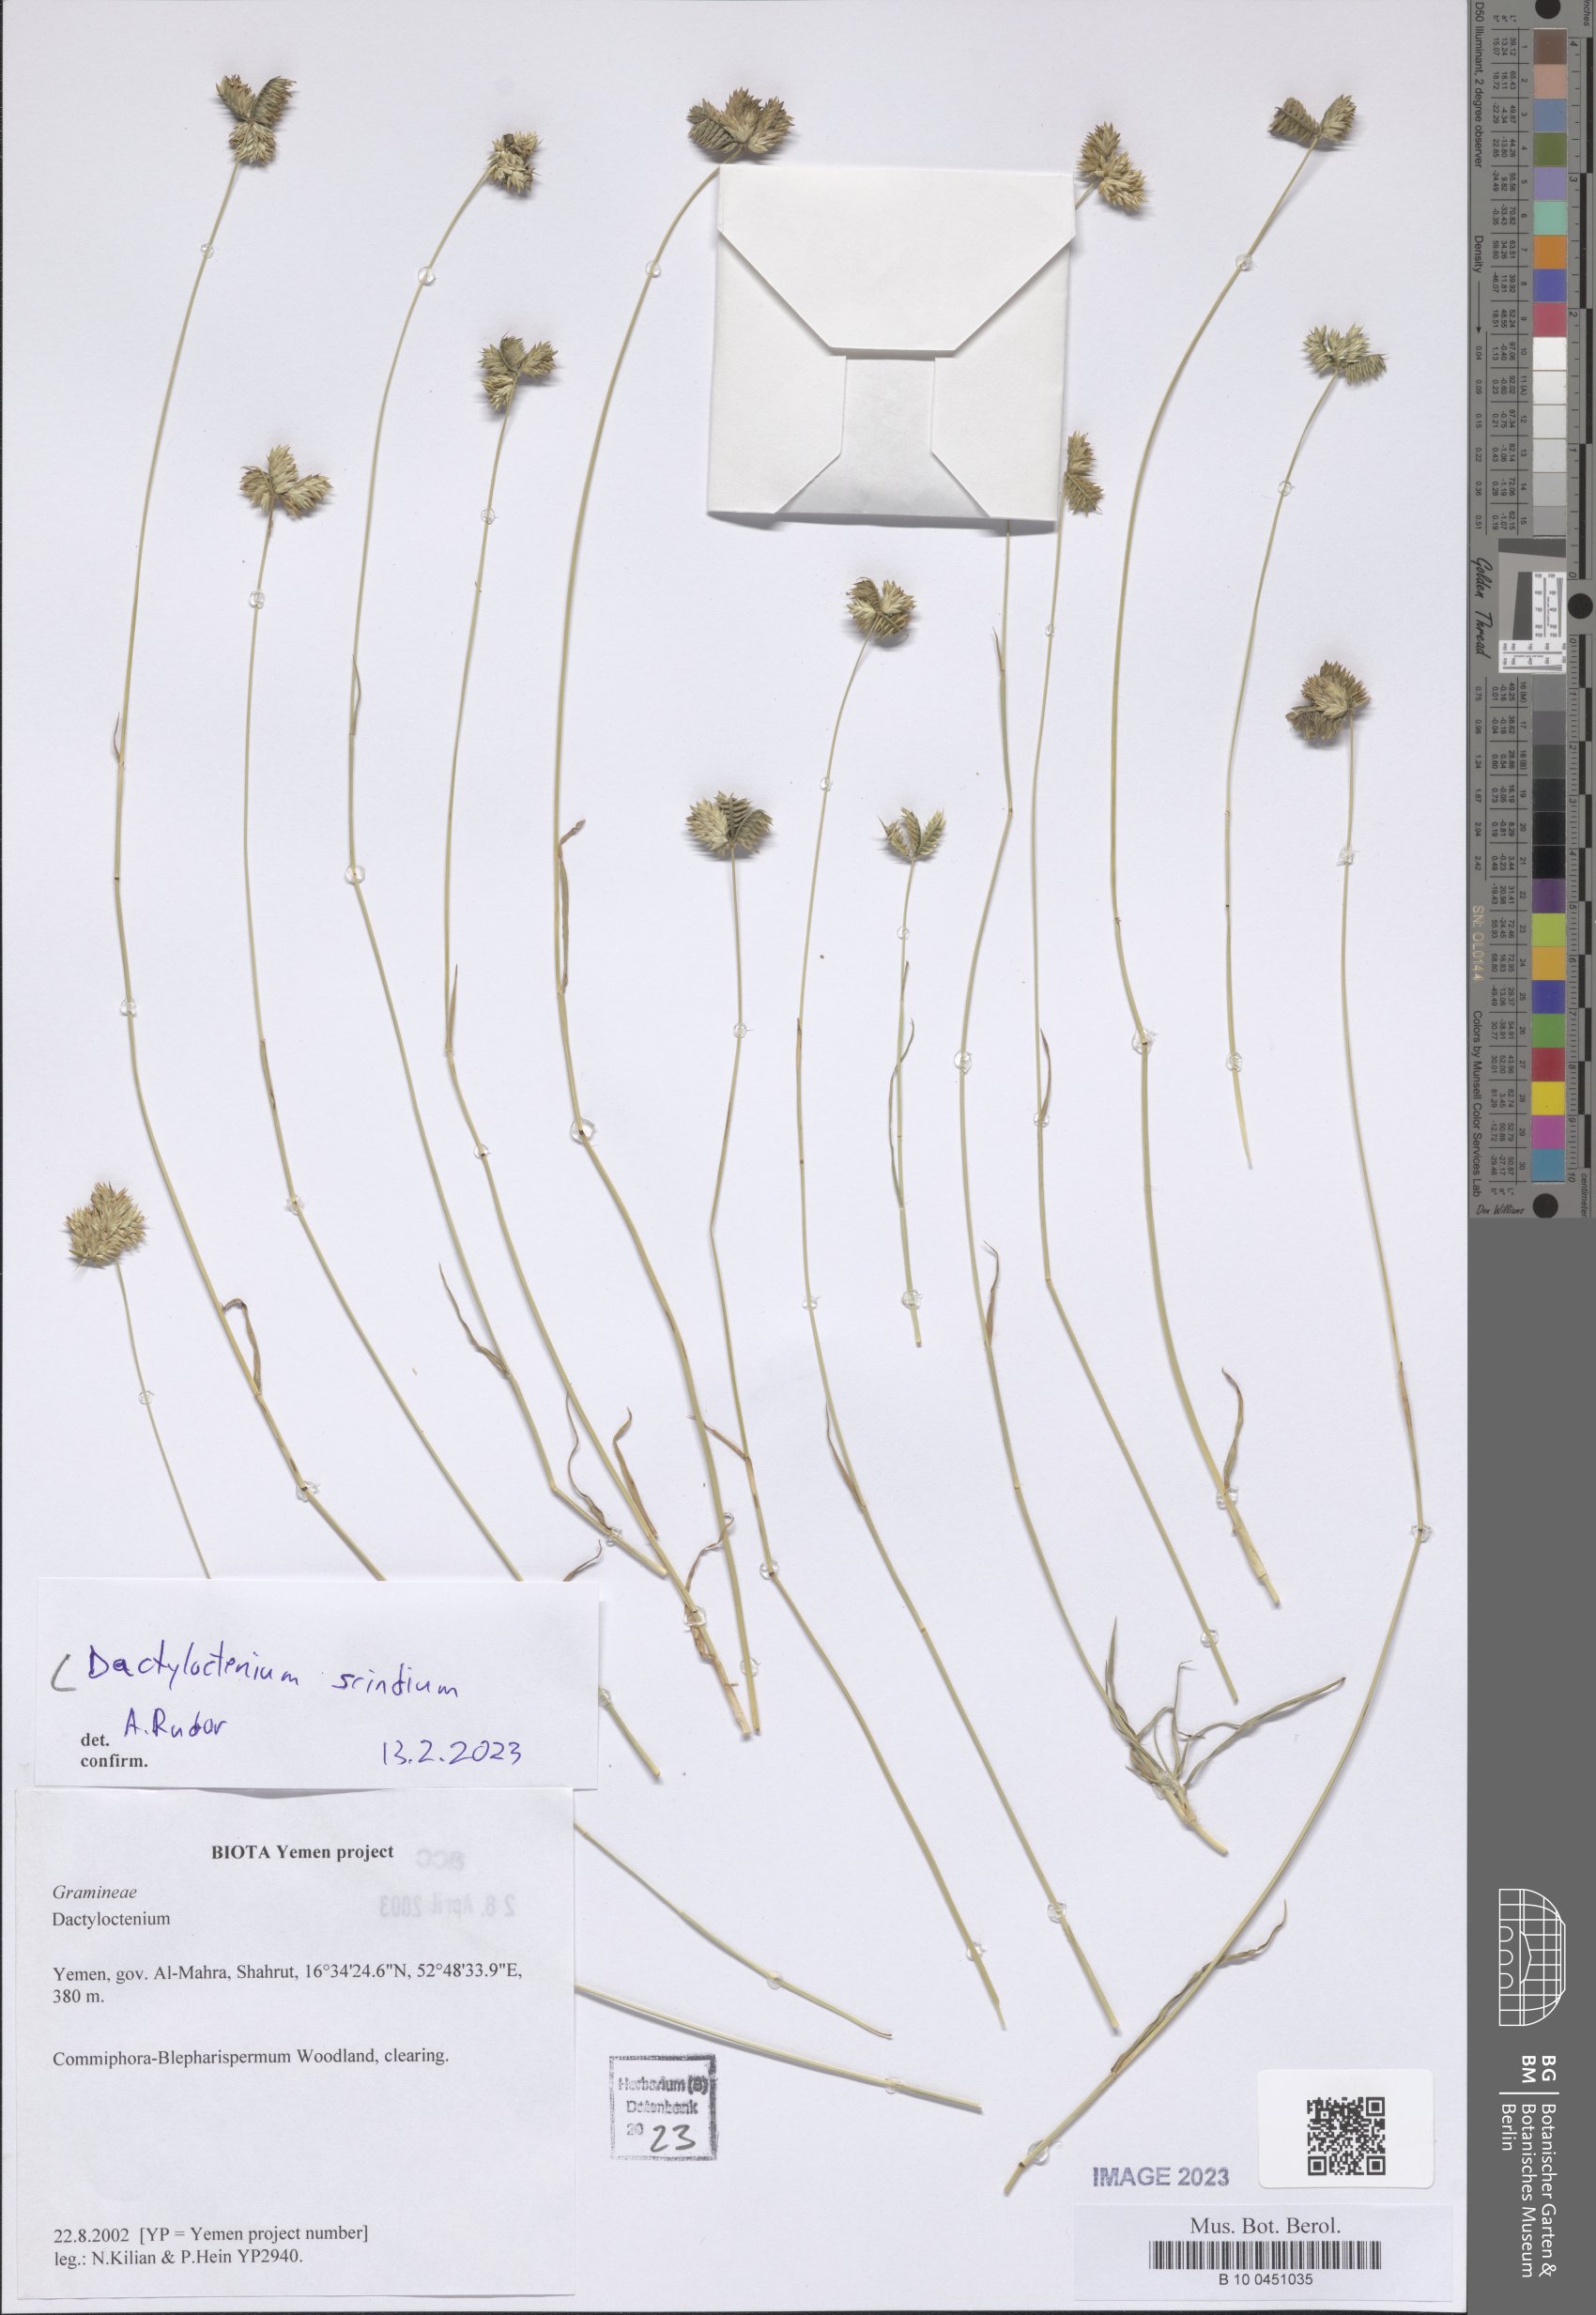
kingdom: Plantae
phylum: Tracheophyta
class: Liliopsida
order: Poales
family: Poaceae
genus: Dactyloctenium
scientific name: Dactyloctenium scindicum
